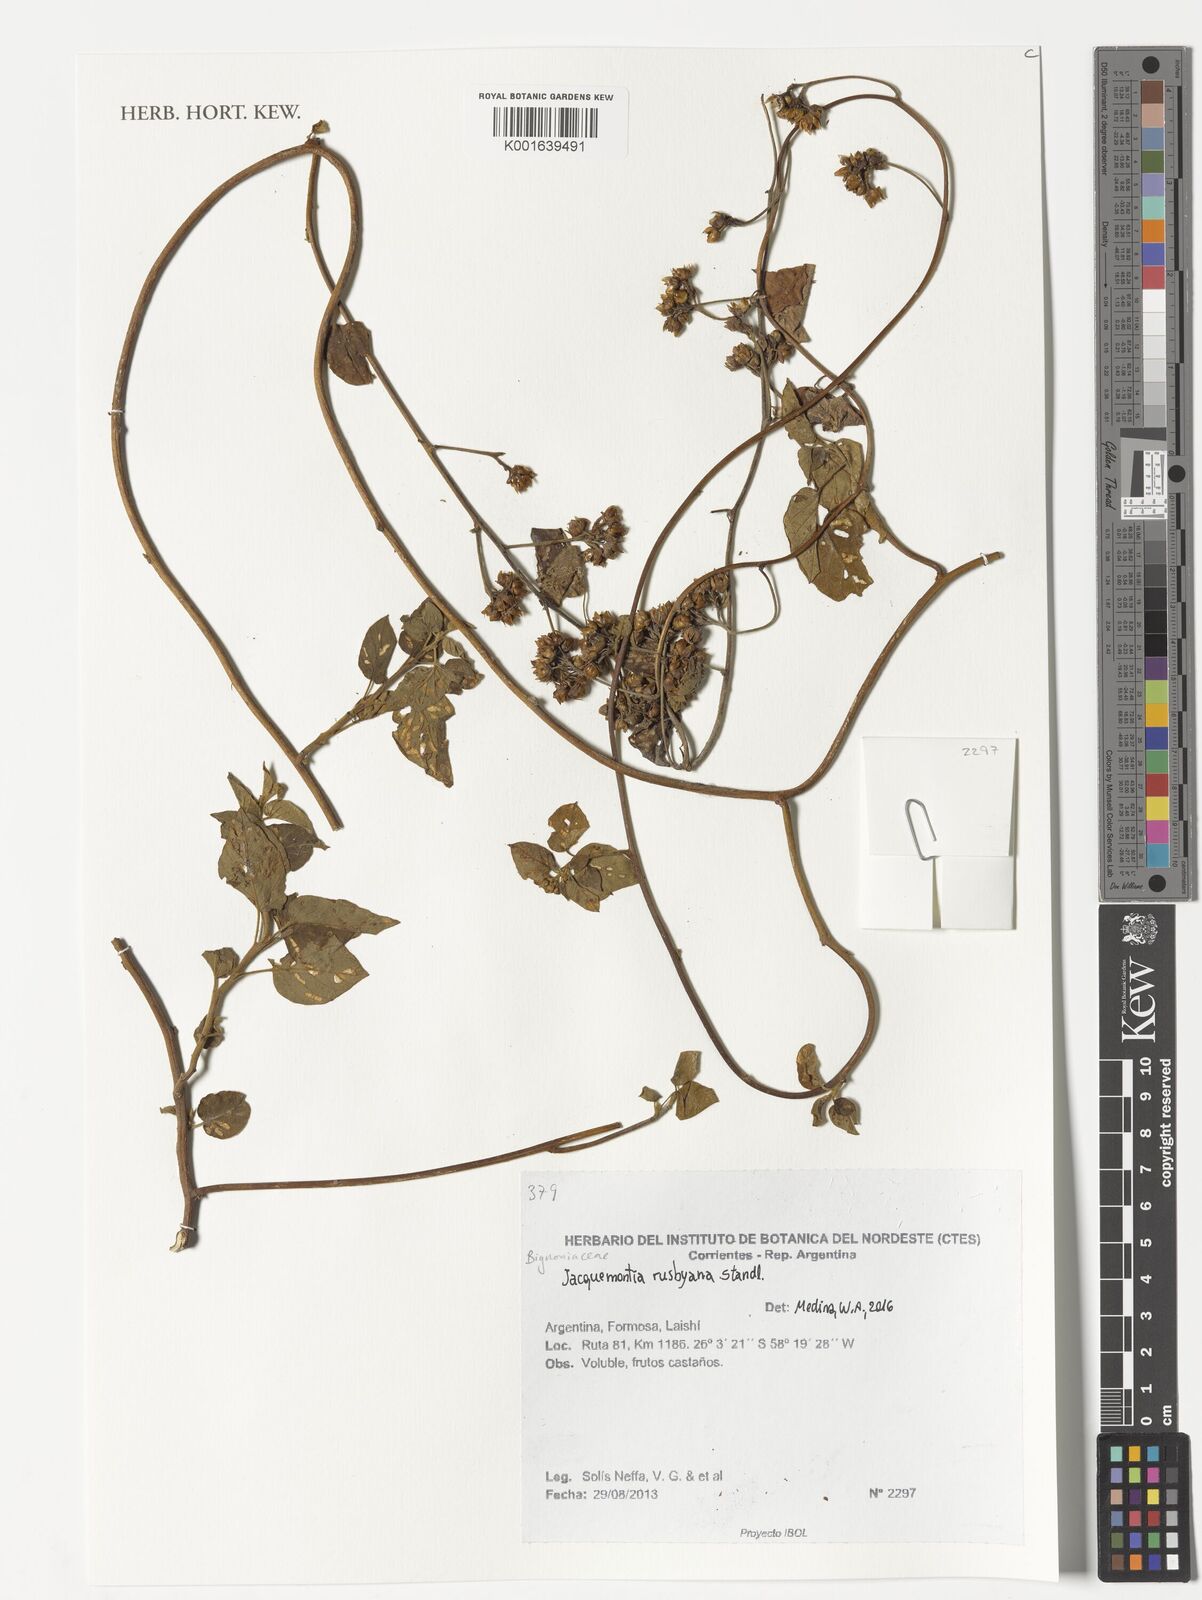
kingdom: Plantae
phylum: Tracheophyta
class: Magnoliopsida
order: Solanales
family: Convolvulaceae
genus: Jacquemontia
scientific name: Jacquemontia pentanthos
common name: Skyblue clustervine
